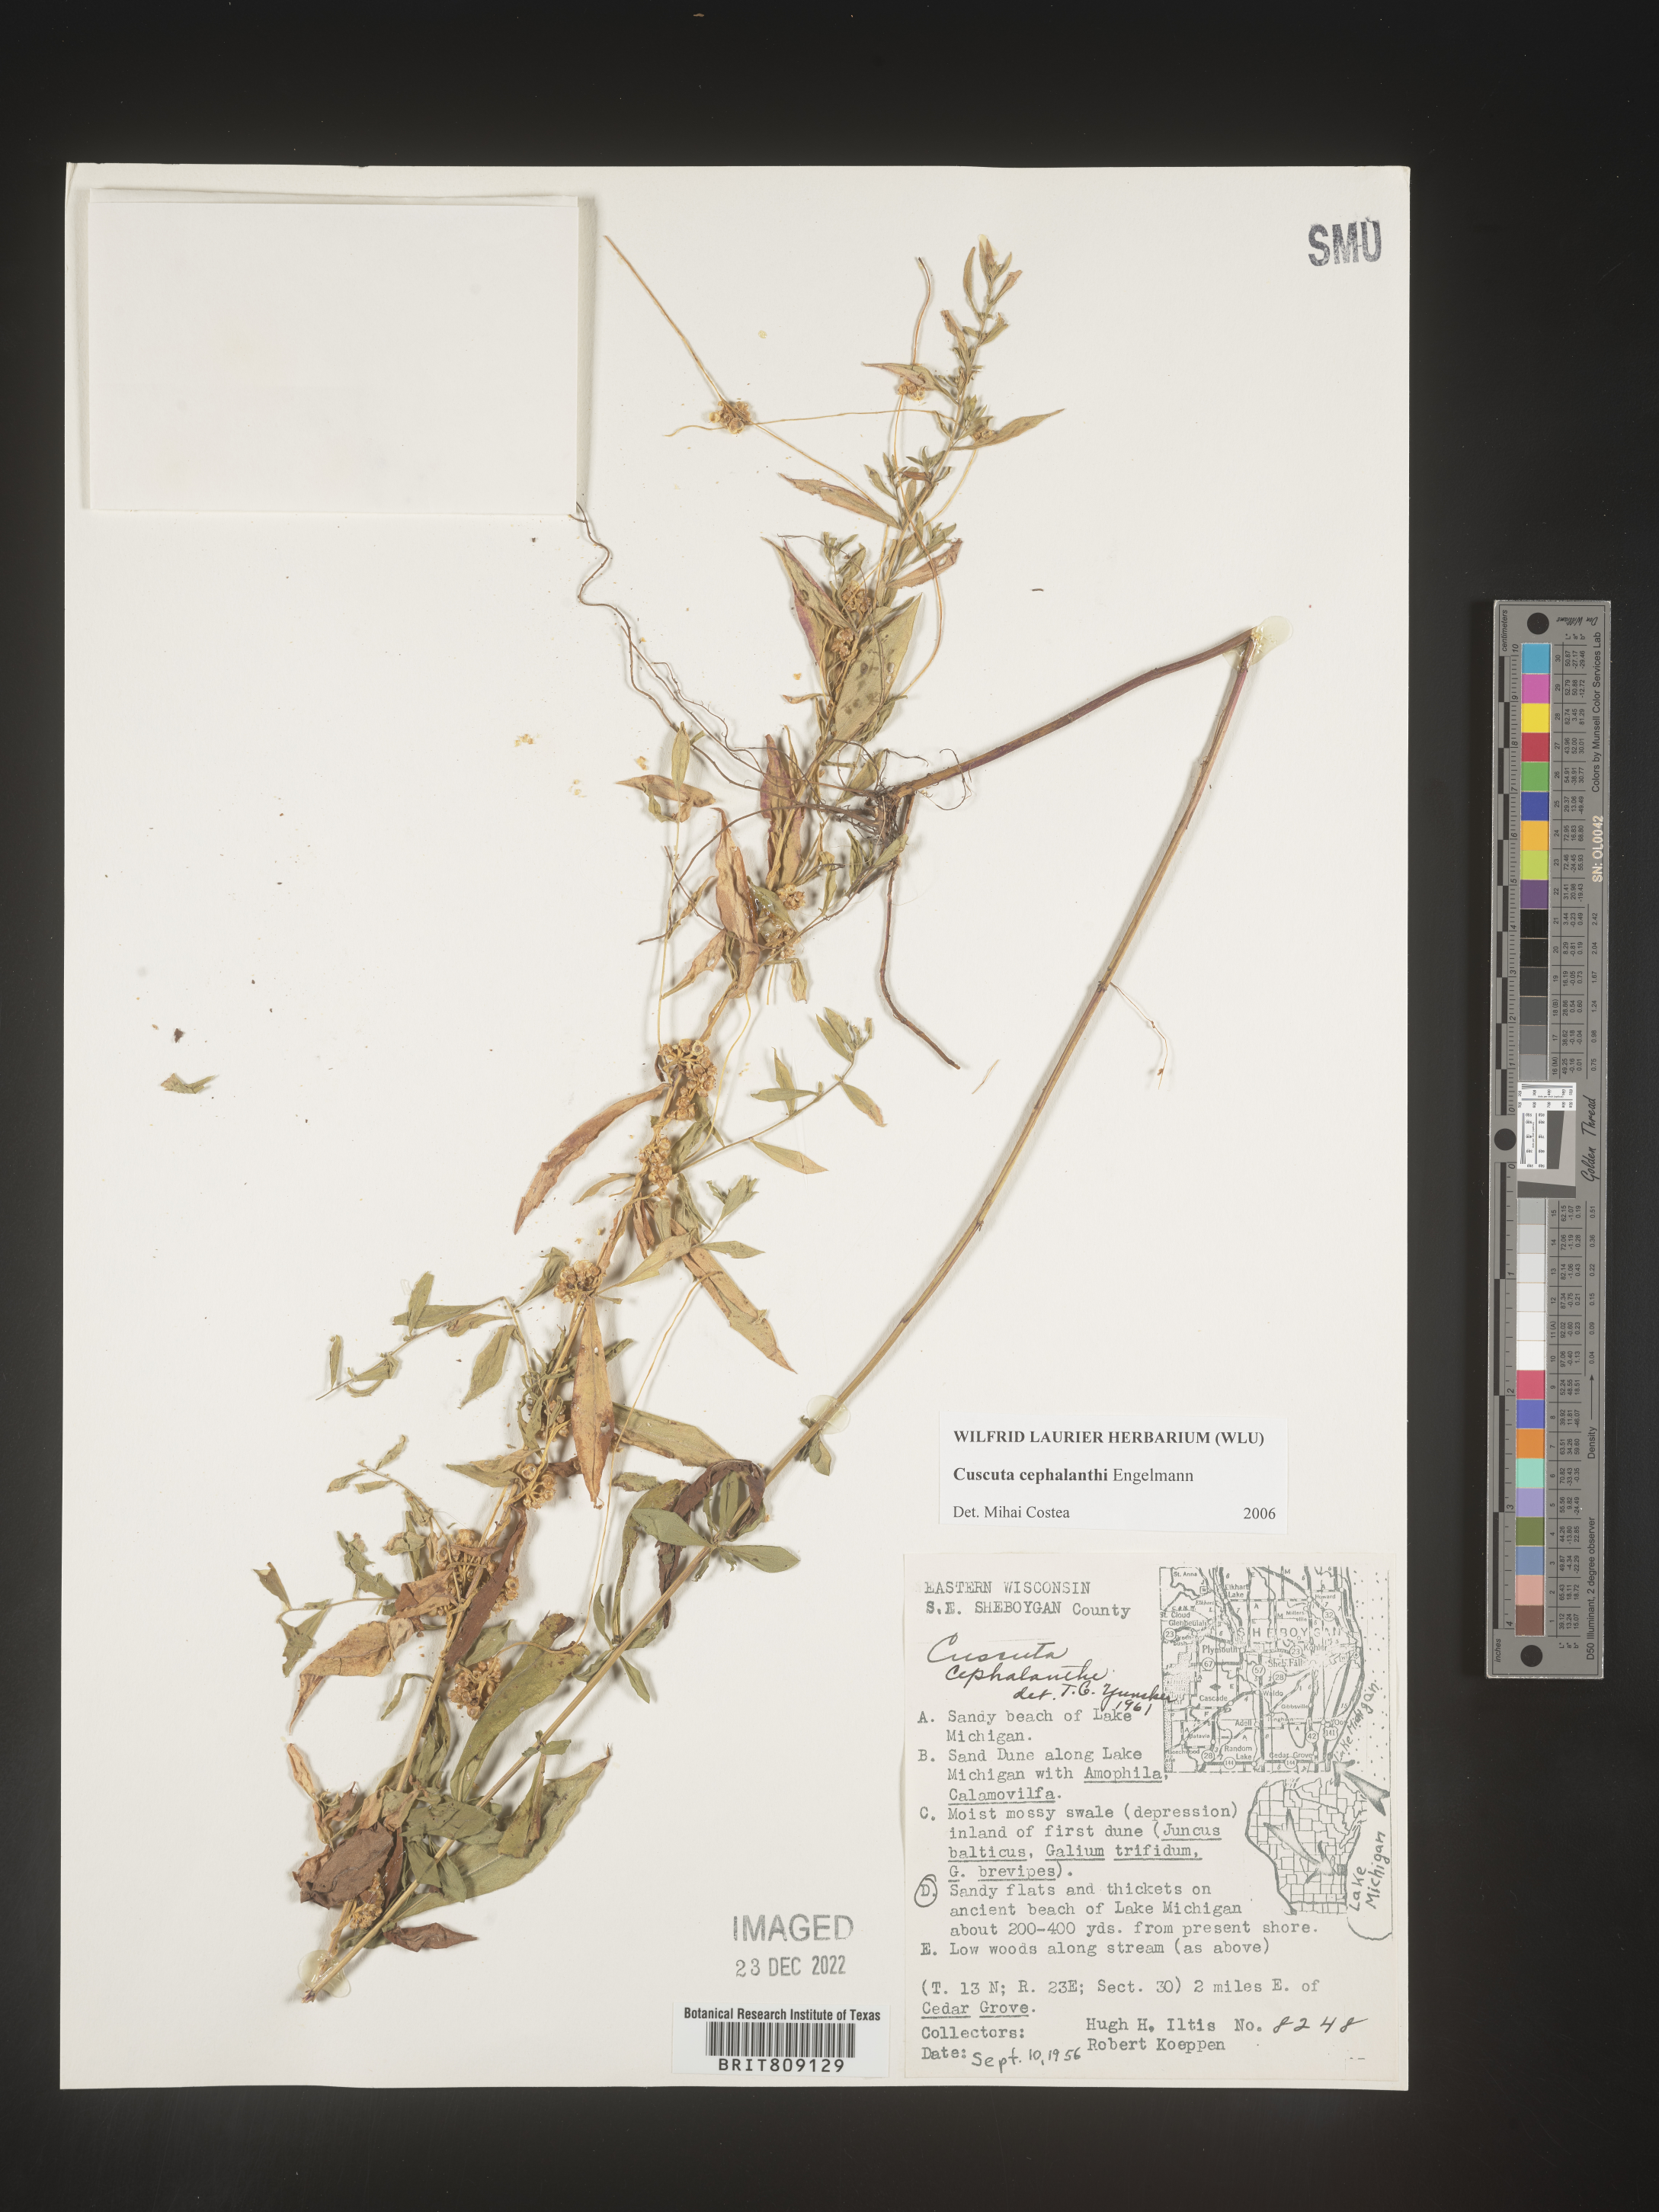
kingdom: Plantae
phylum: Tracheophyta
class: Magnoliopsida
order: Solanales
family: Convolvulaceae
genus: Cuscuta
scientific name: Cuscuta cephalanthi
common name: Button dodder
